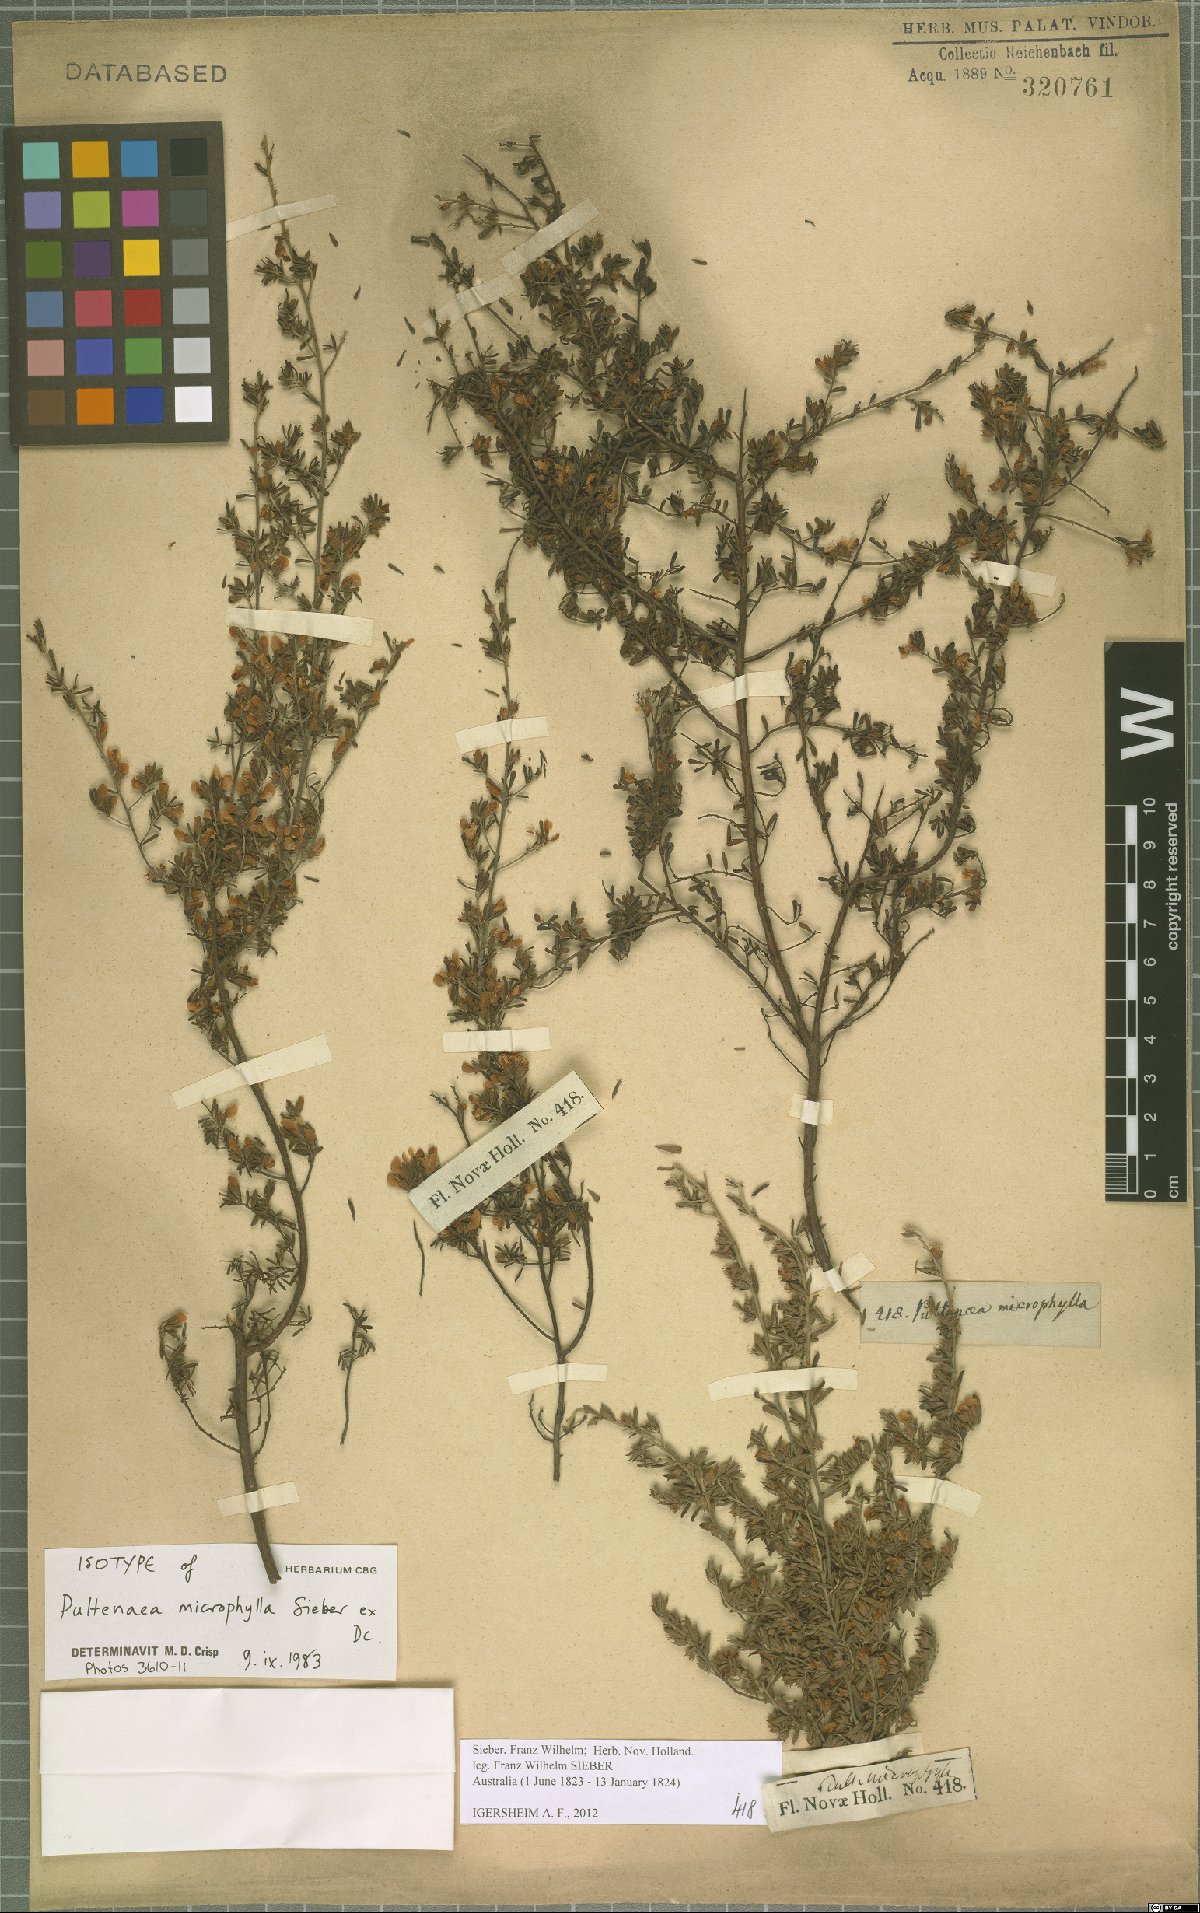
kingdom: Plantae
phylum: Tracheophyta
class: Magnoliopsida
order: Fabales
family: Fabaceae
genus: Pultenaea
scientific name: Pultenaea microphylla
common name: Spreading bush-pea
